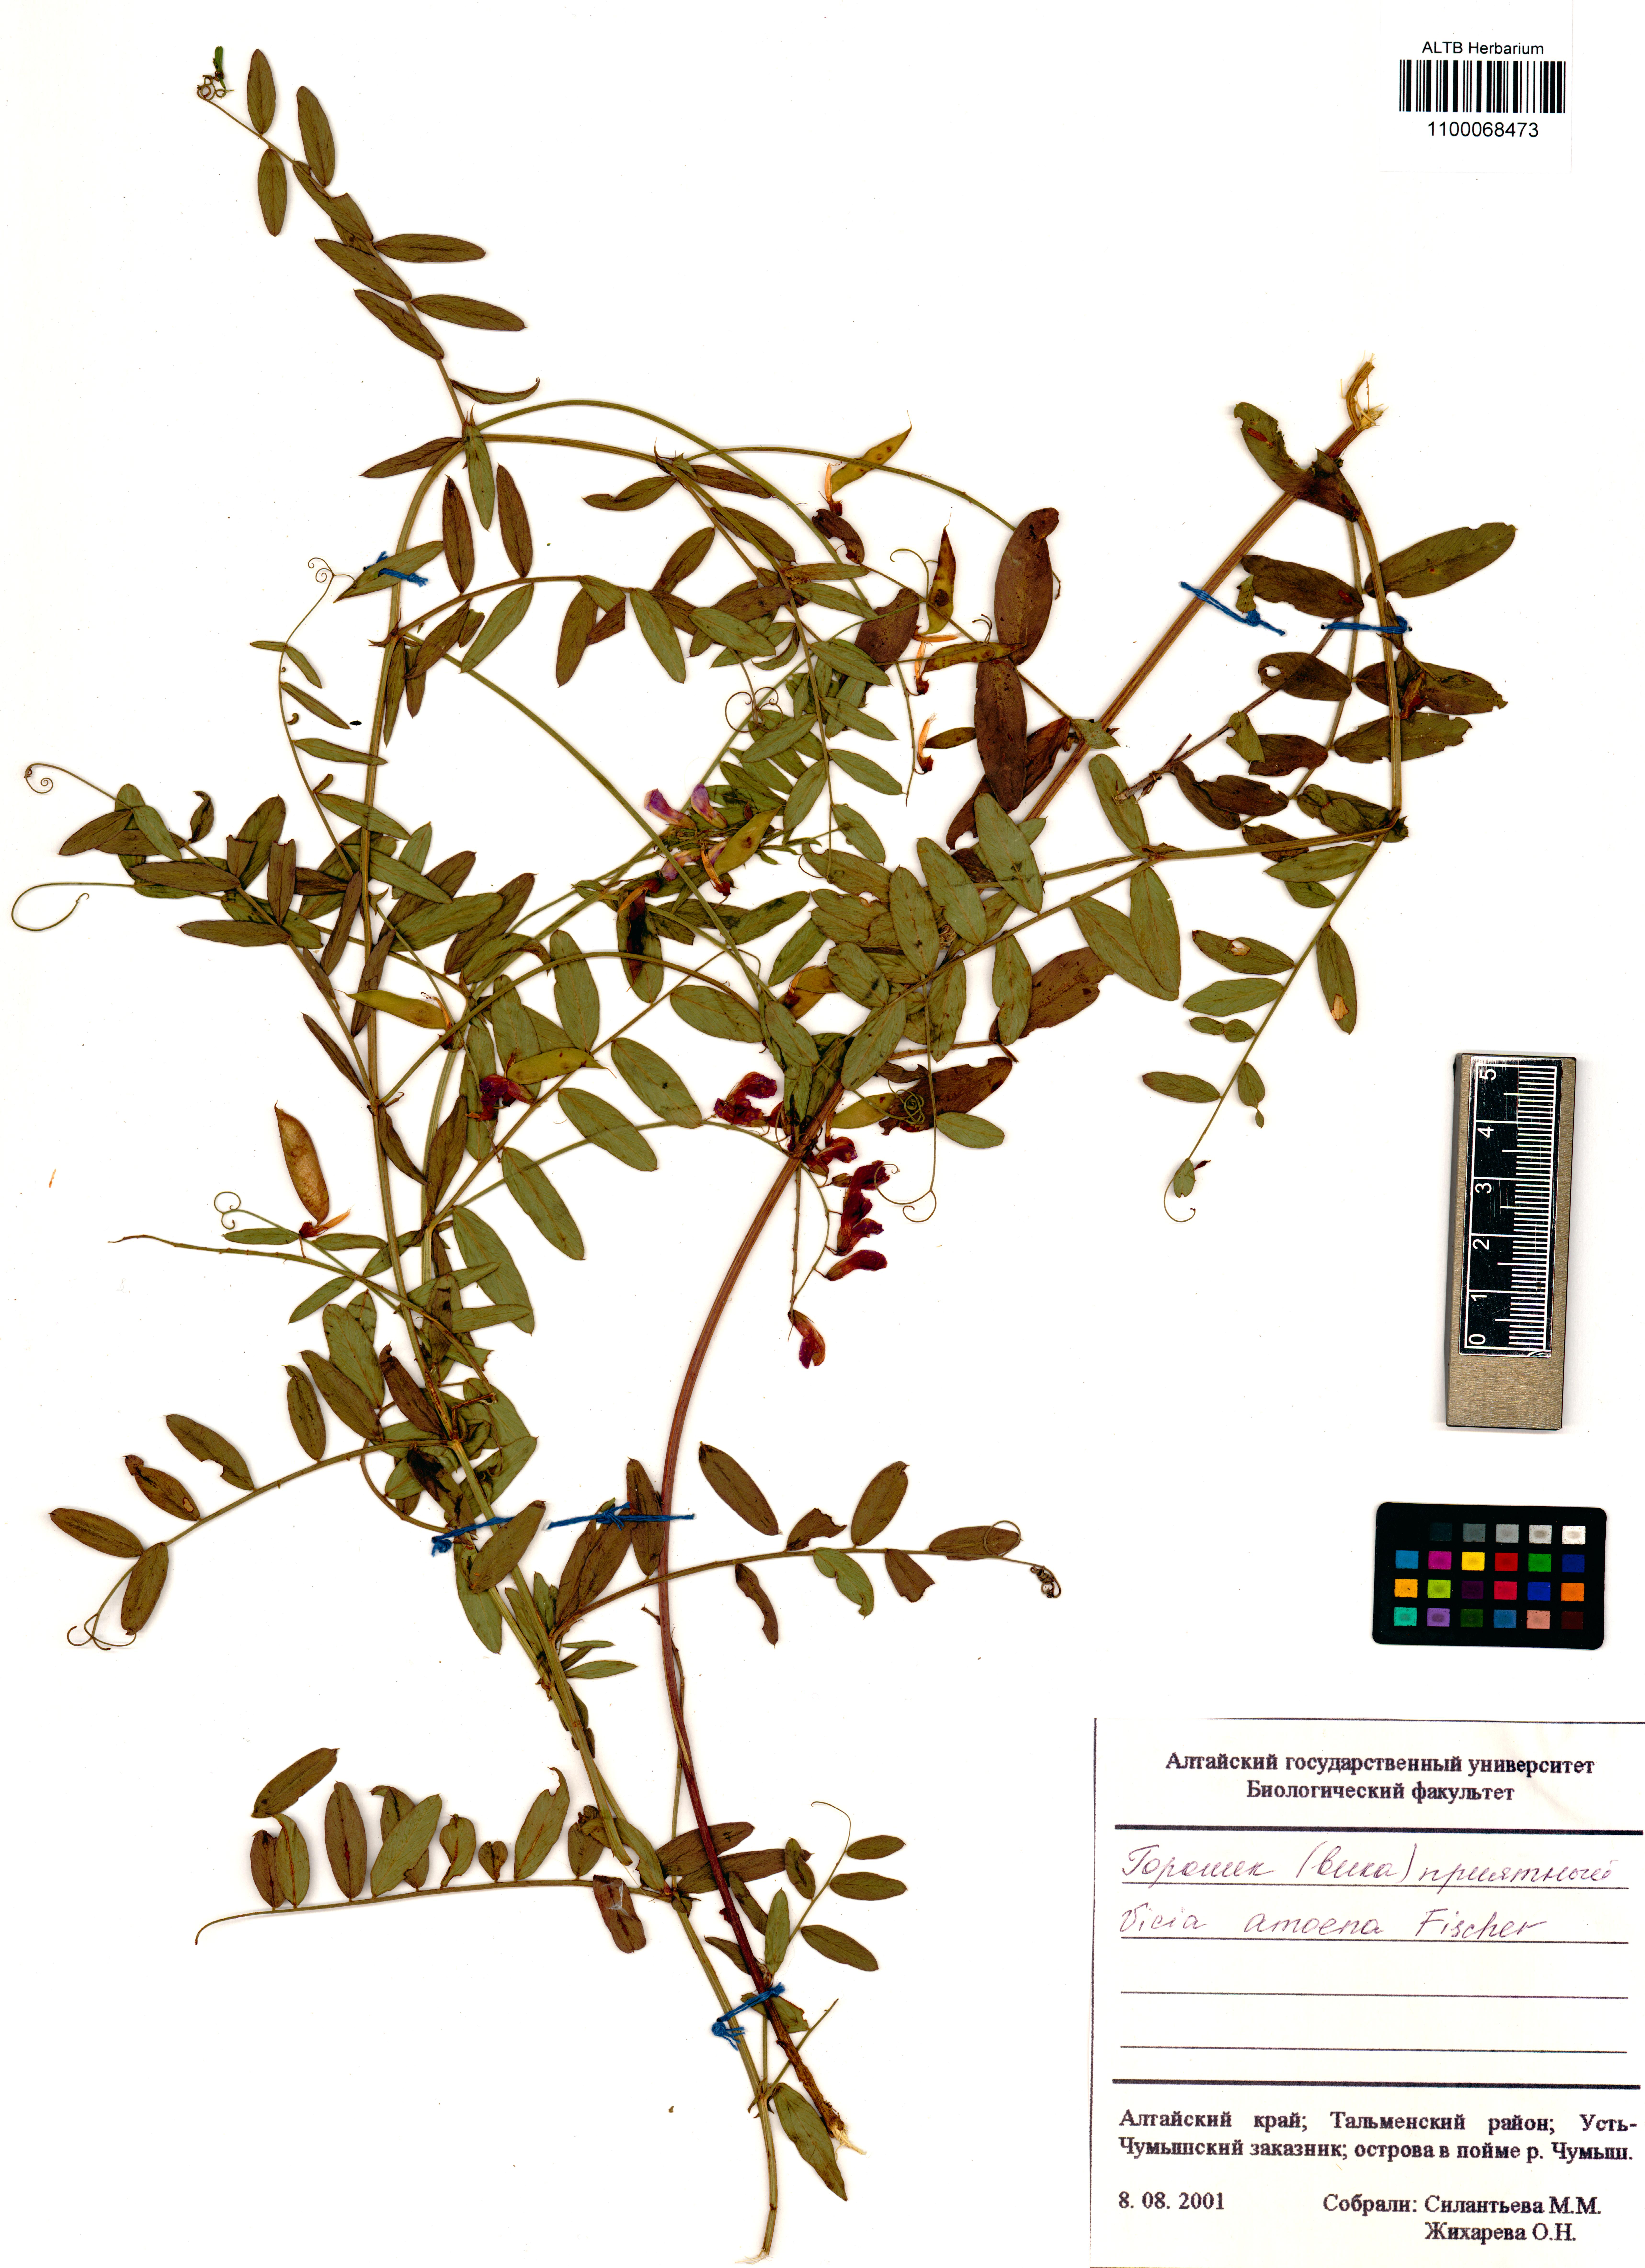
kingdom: Plantae
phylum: Tracheophyta
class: Magnoliopsida
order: Fabales
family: Fabaceae
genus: Vicia
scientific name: Vicia amoena
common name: Cheder ebs
